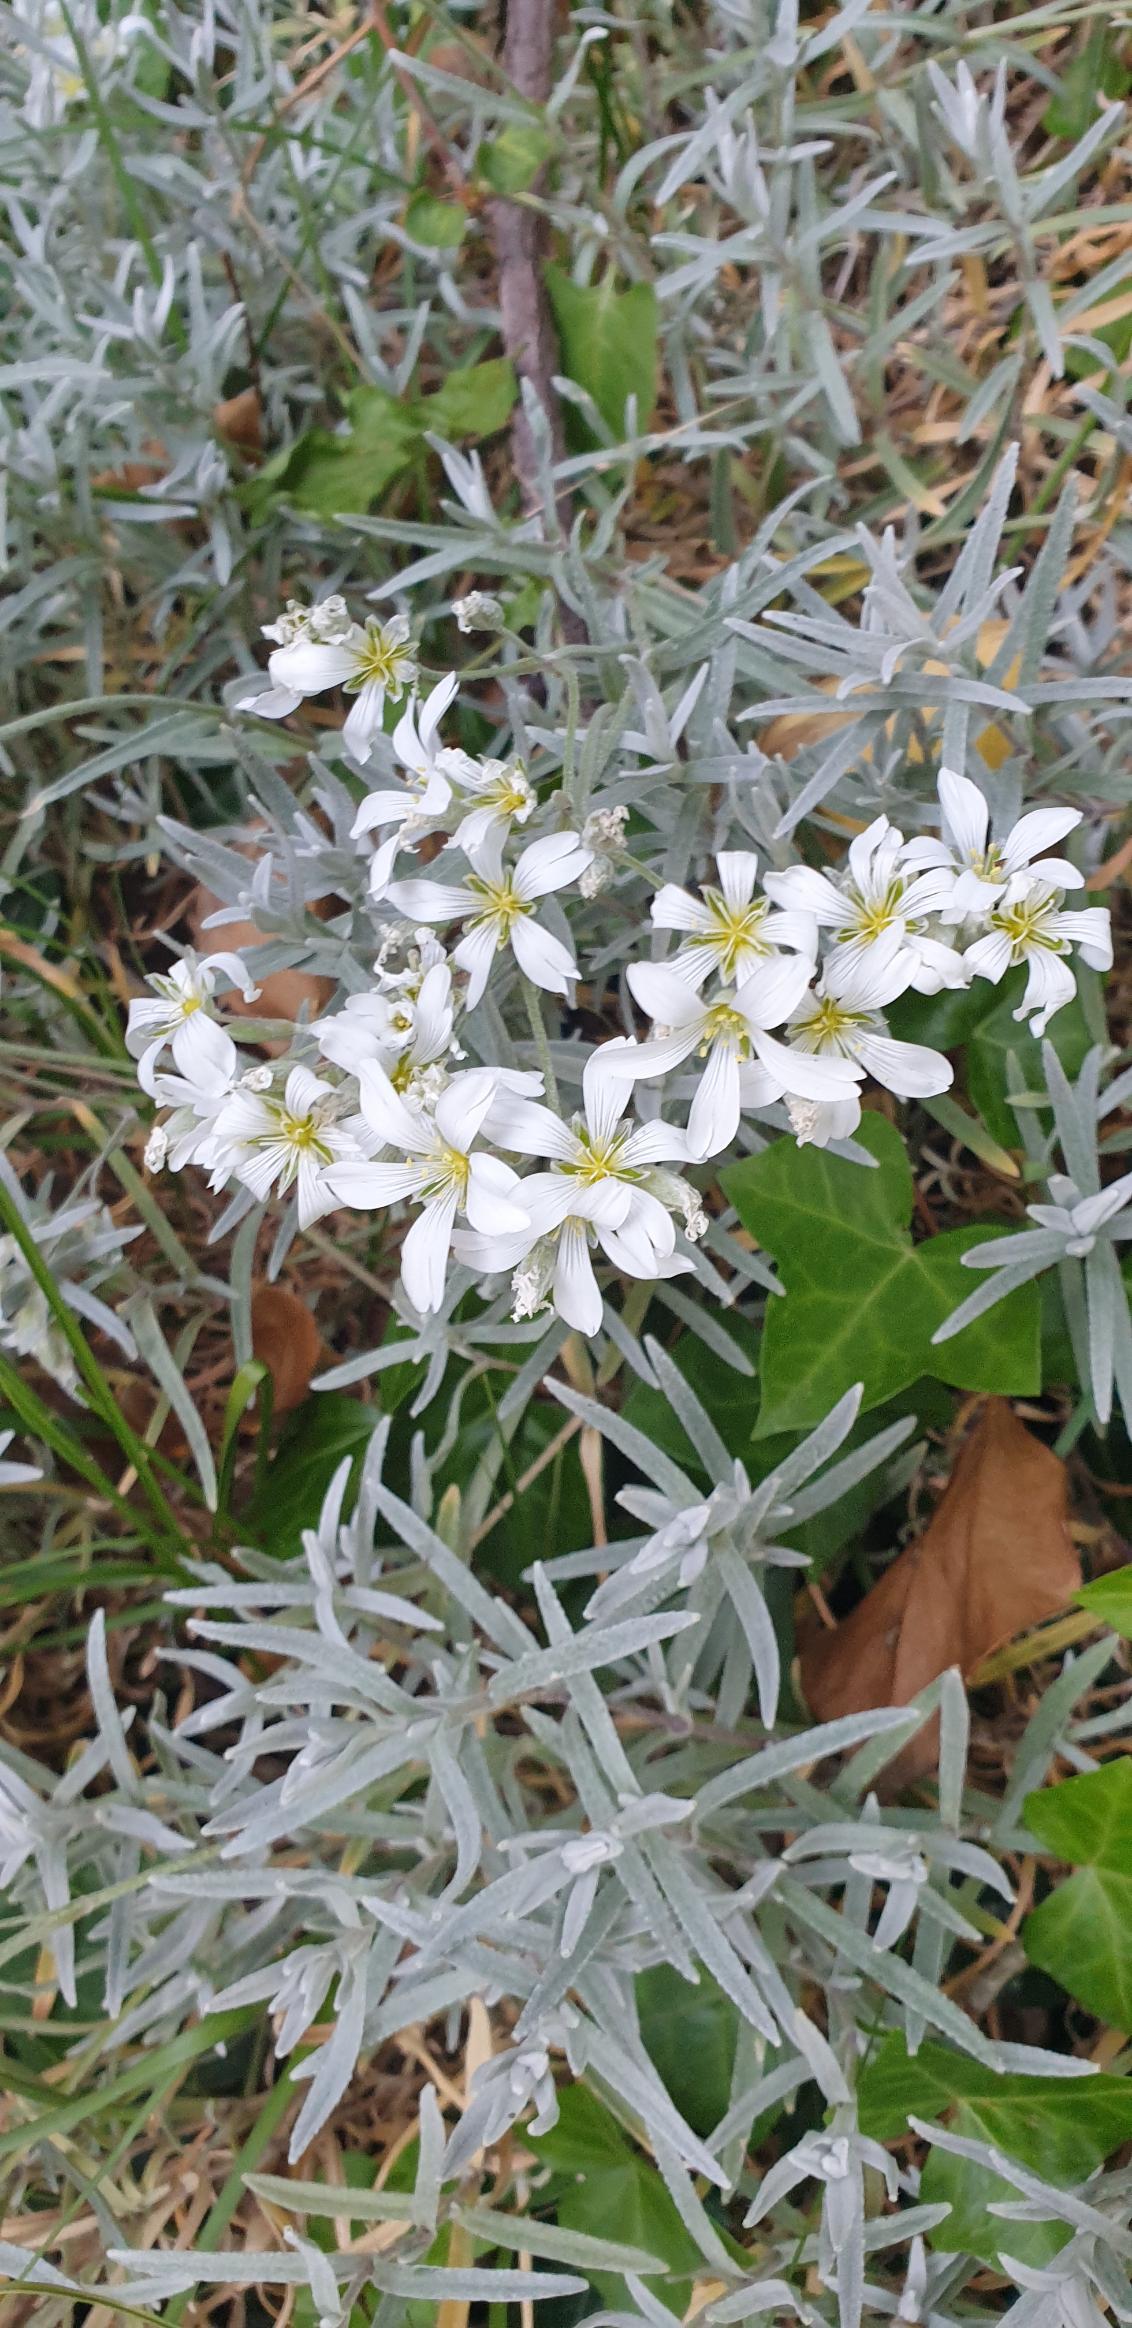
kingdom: Plantae
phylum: Tracheophyta
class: Magnoliopsida
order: Caryophyllales
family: Caryophyllaceae
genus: Cerastium
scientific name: Cerastium tomentosum
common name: Filtet hønsetarm
